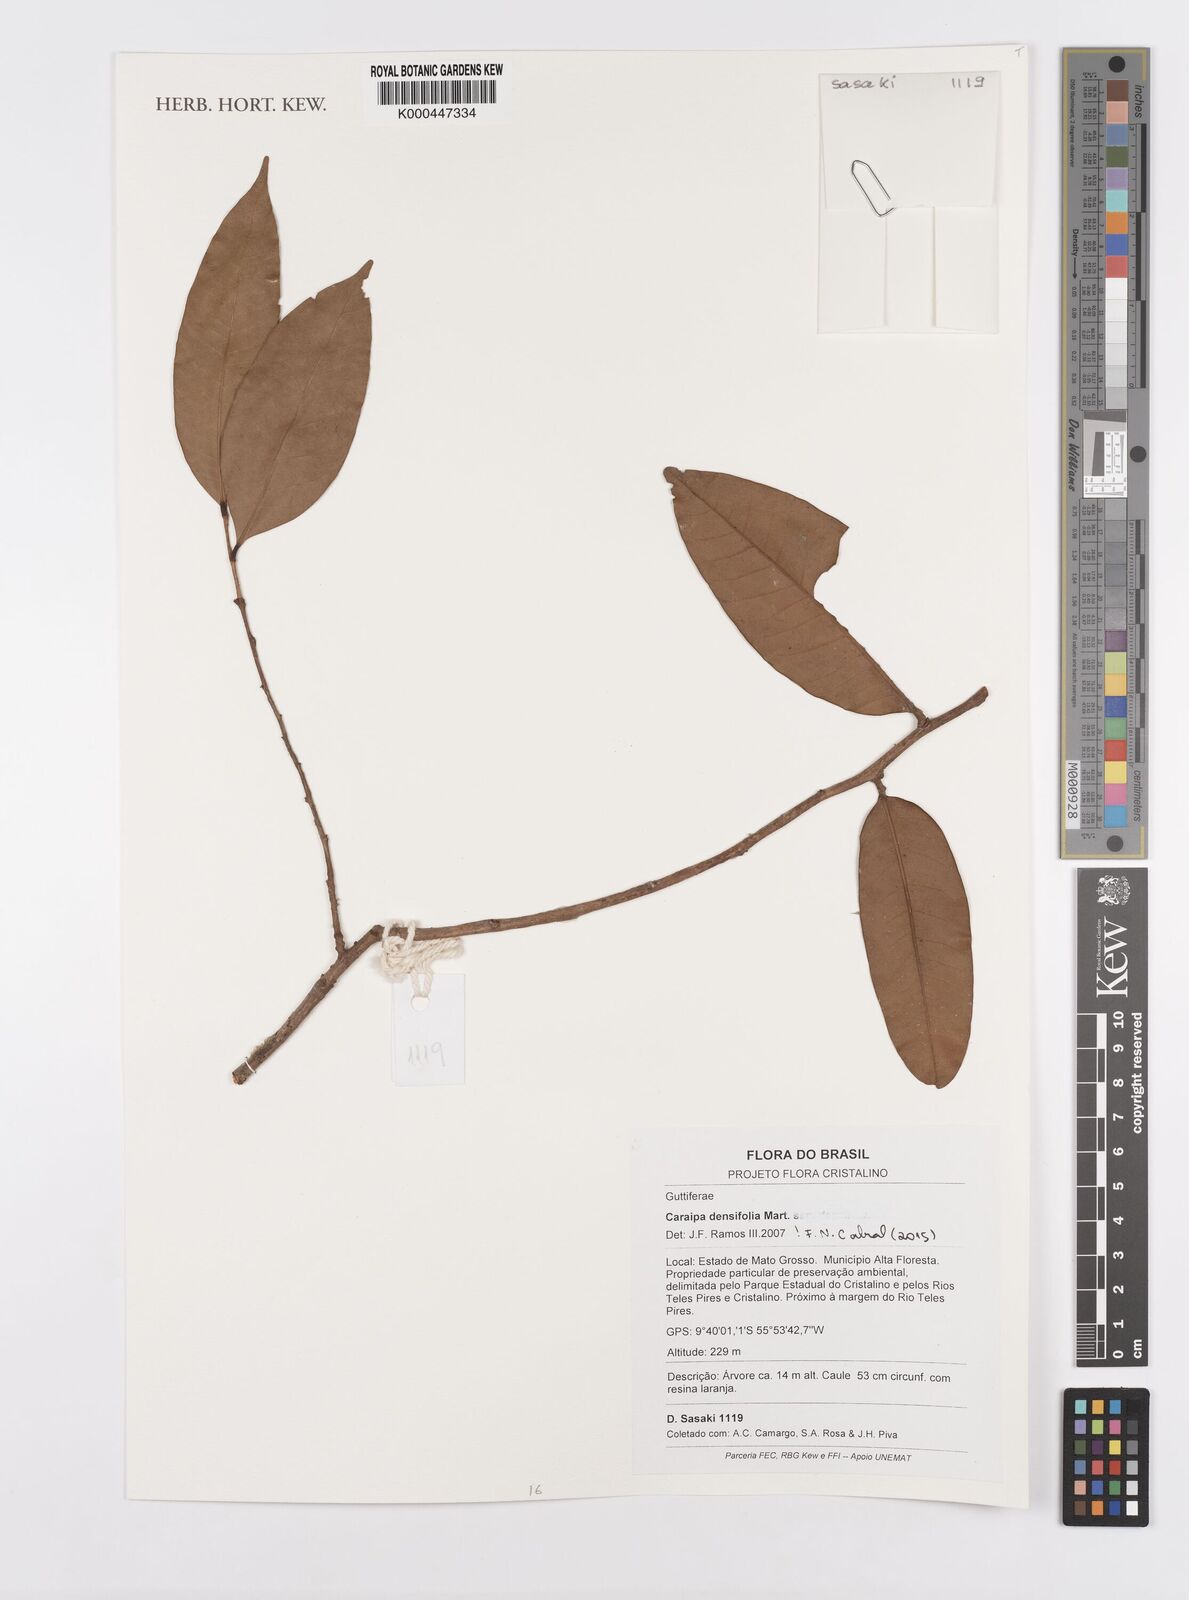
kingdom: Plantae
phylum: Tracheophyta
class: Magnoliopsida
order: Malpighiales
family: Calophyllaceae
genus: Caraipa
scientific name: Caraipa densifolia
